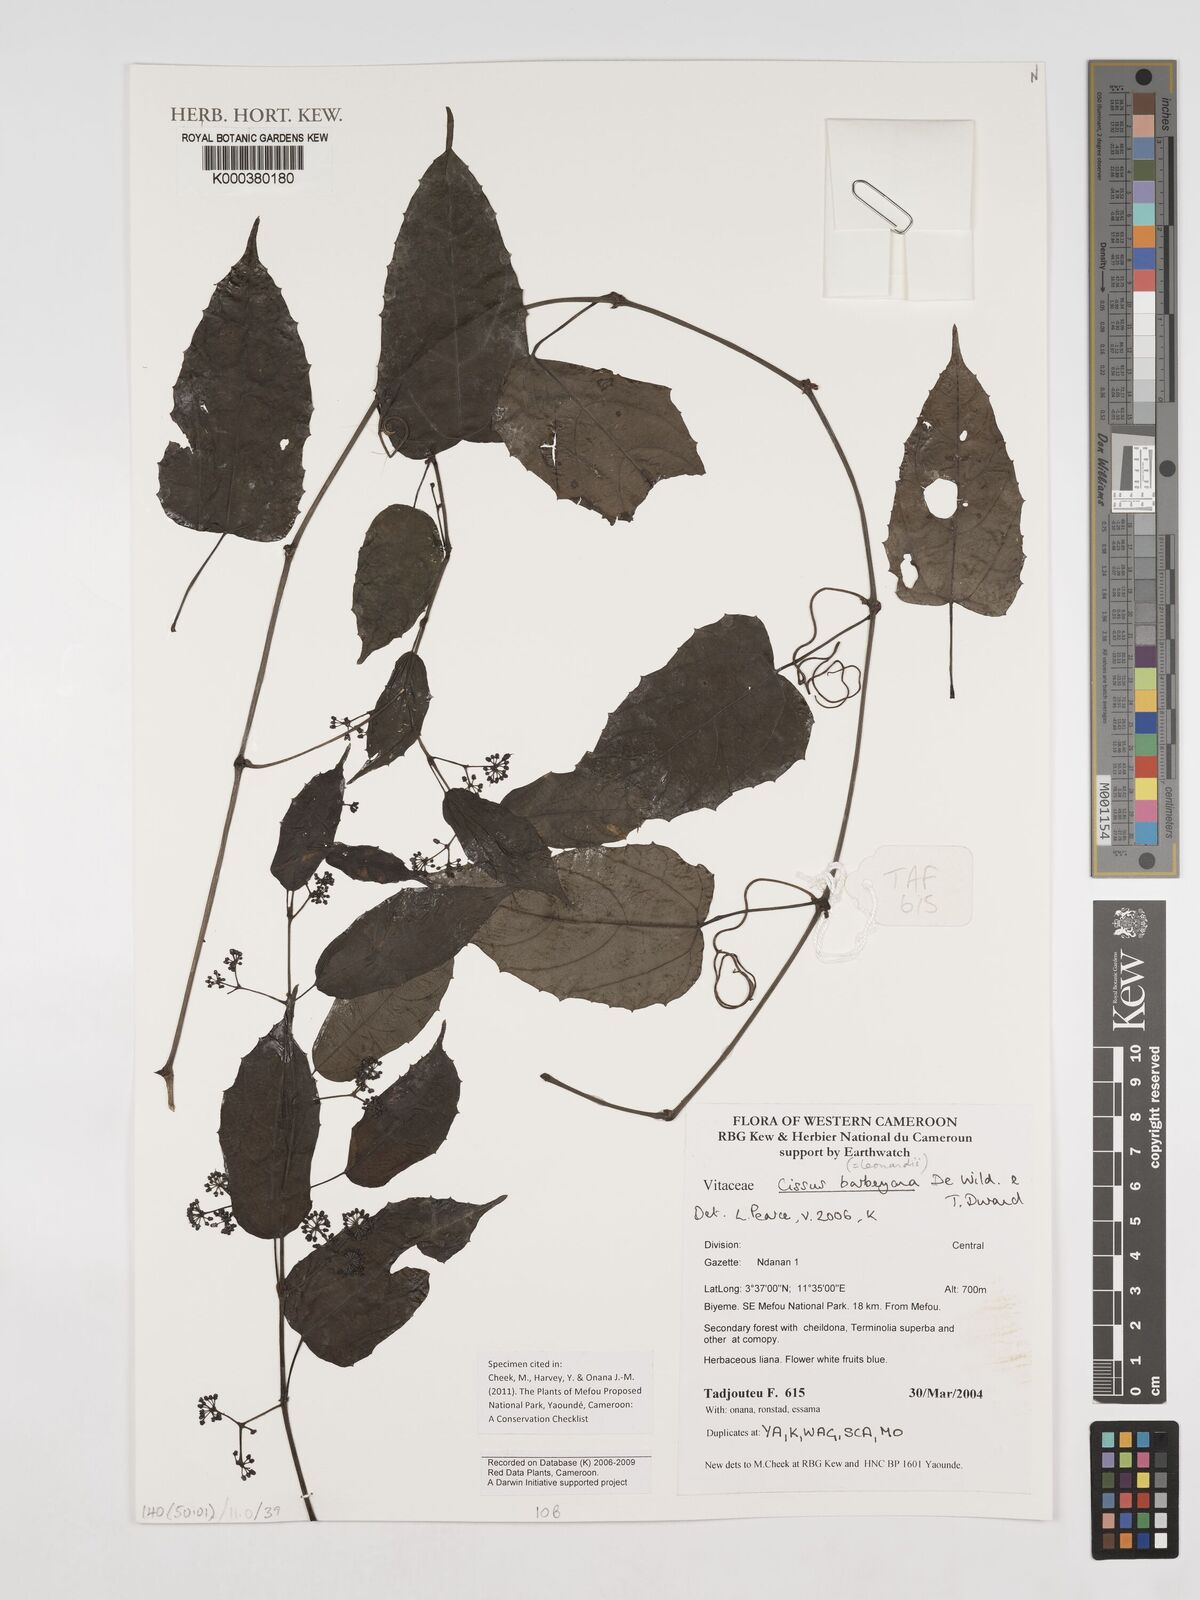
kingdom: Plantae
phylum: Tracheophyta
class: Magnoliopsida
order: Vitales
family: Vitaceae
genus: Cissus
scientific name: Cissus barbeyana
